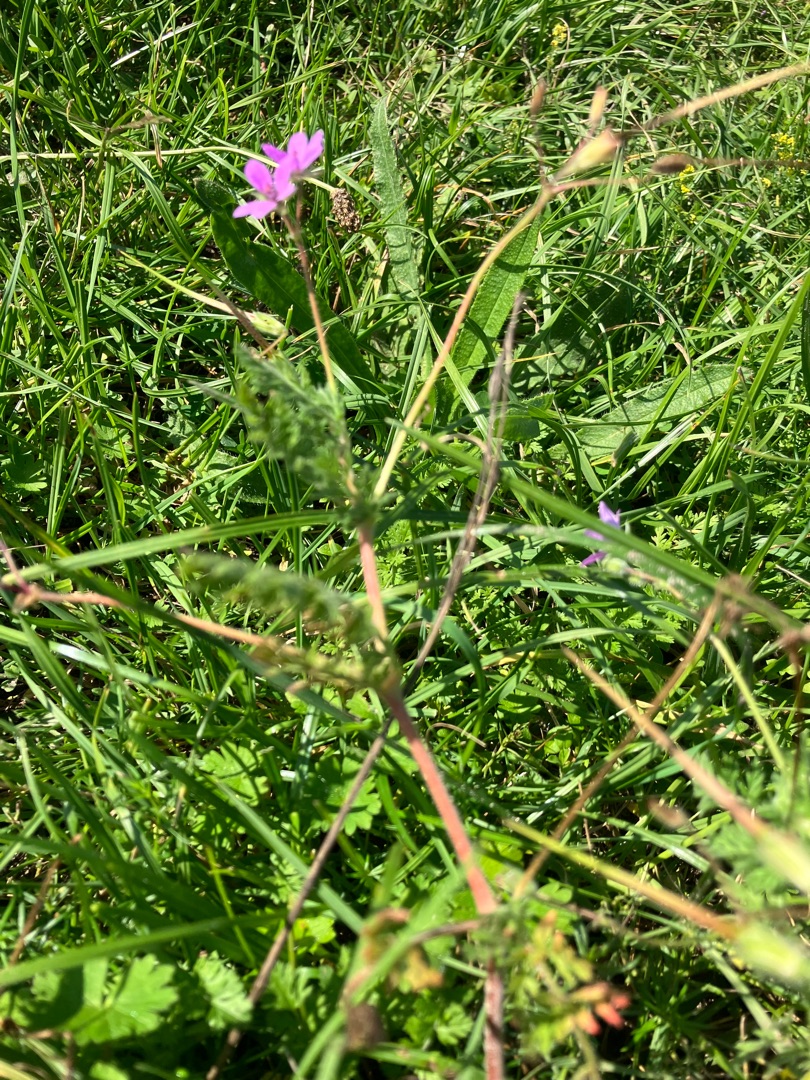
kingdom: Plantae
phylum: Tracheophyta
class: Magnoliopsida
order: Geraniales
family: Geraniaceae
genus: Erodium
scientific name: Erodium cicutarium
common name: Hejrenæb
